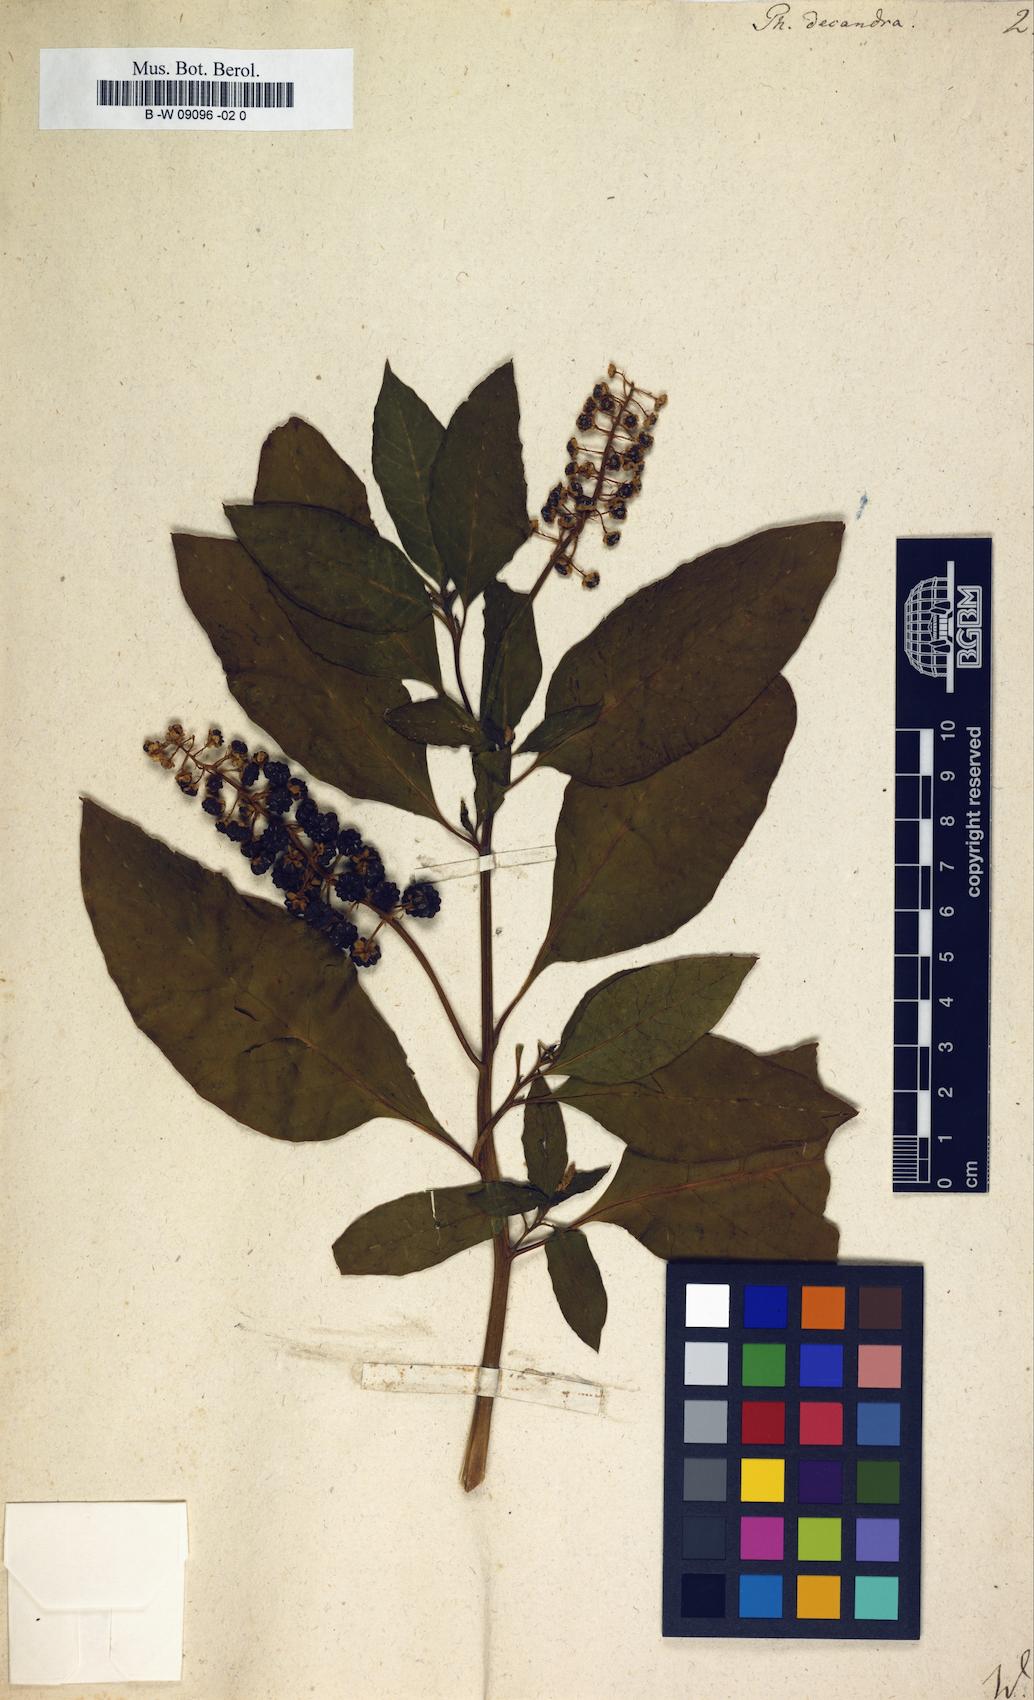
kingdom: Plantae
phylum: Tracheophyta
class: Magnoliopsida
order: Caryophyllales
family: Phytolaccaceae
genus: Phytolacca
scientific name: Phytolacca americana
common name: American pokeweed
